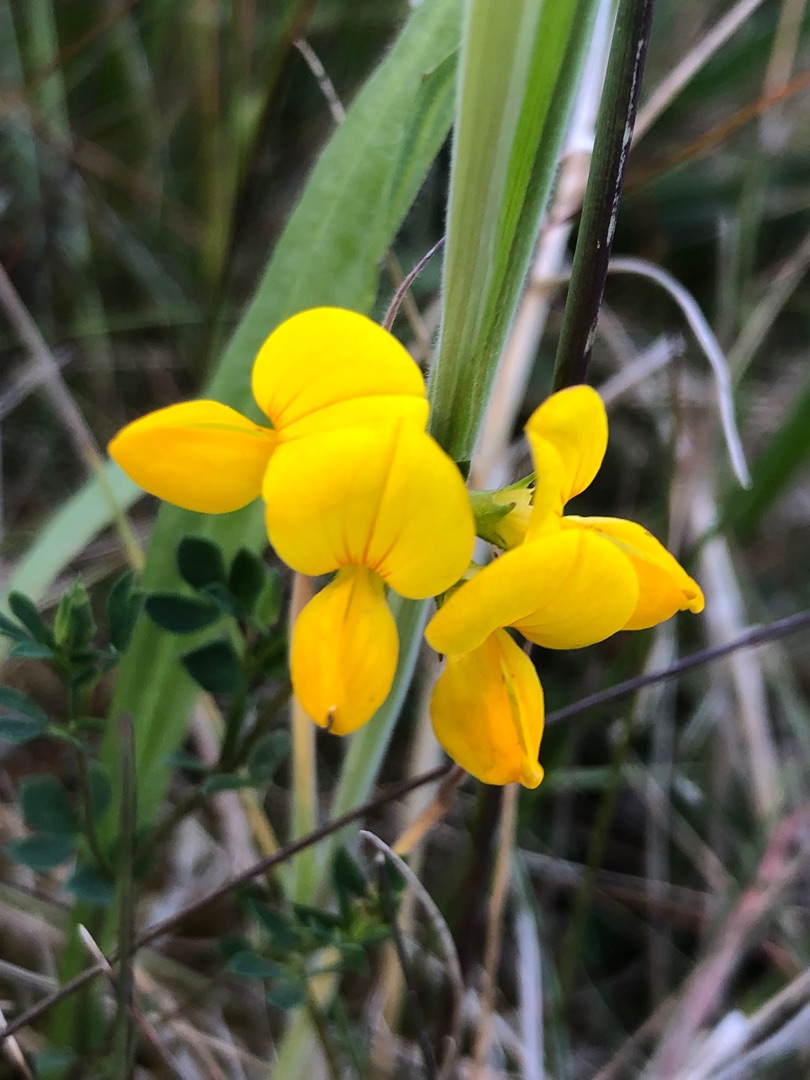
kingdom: Plantae
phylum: Tracheophyta
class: Magnoliopsida
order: Fabales
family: Fabaceae
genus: Lotus
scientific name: Lotus corniculatus
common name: Almindelig kællingetand
